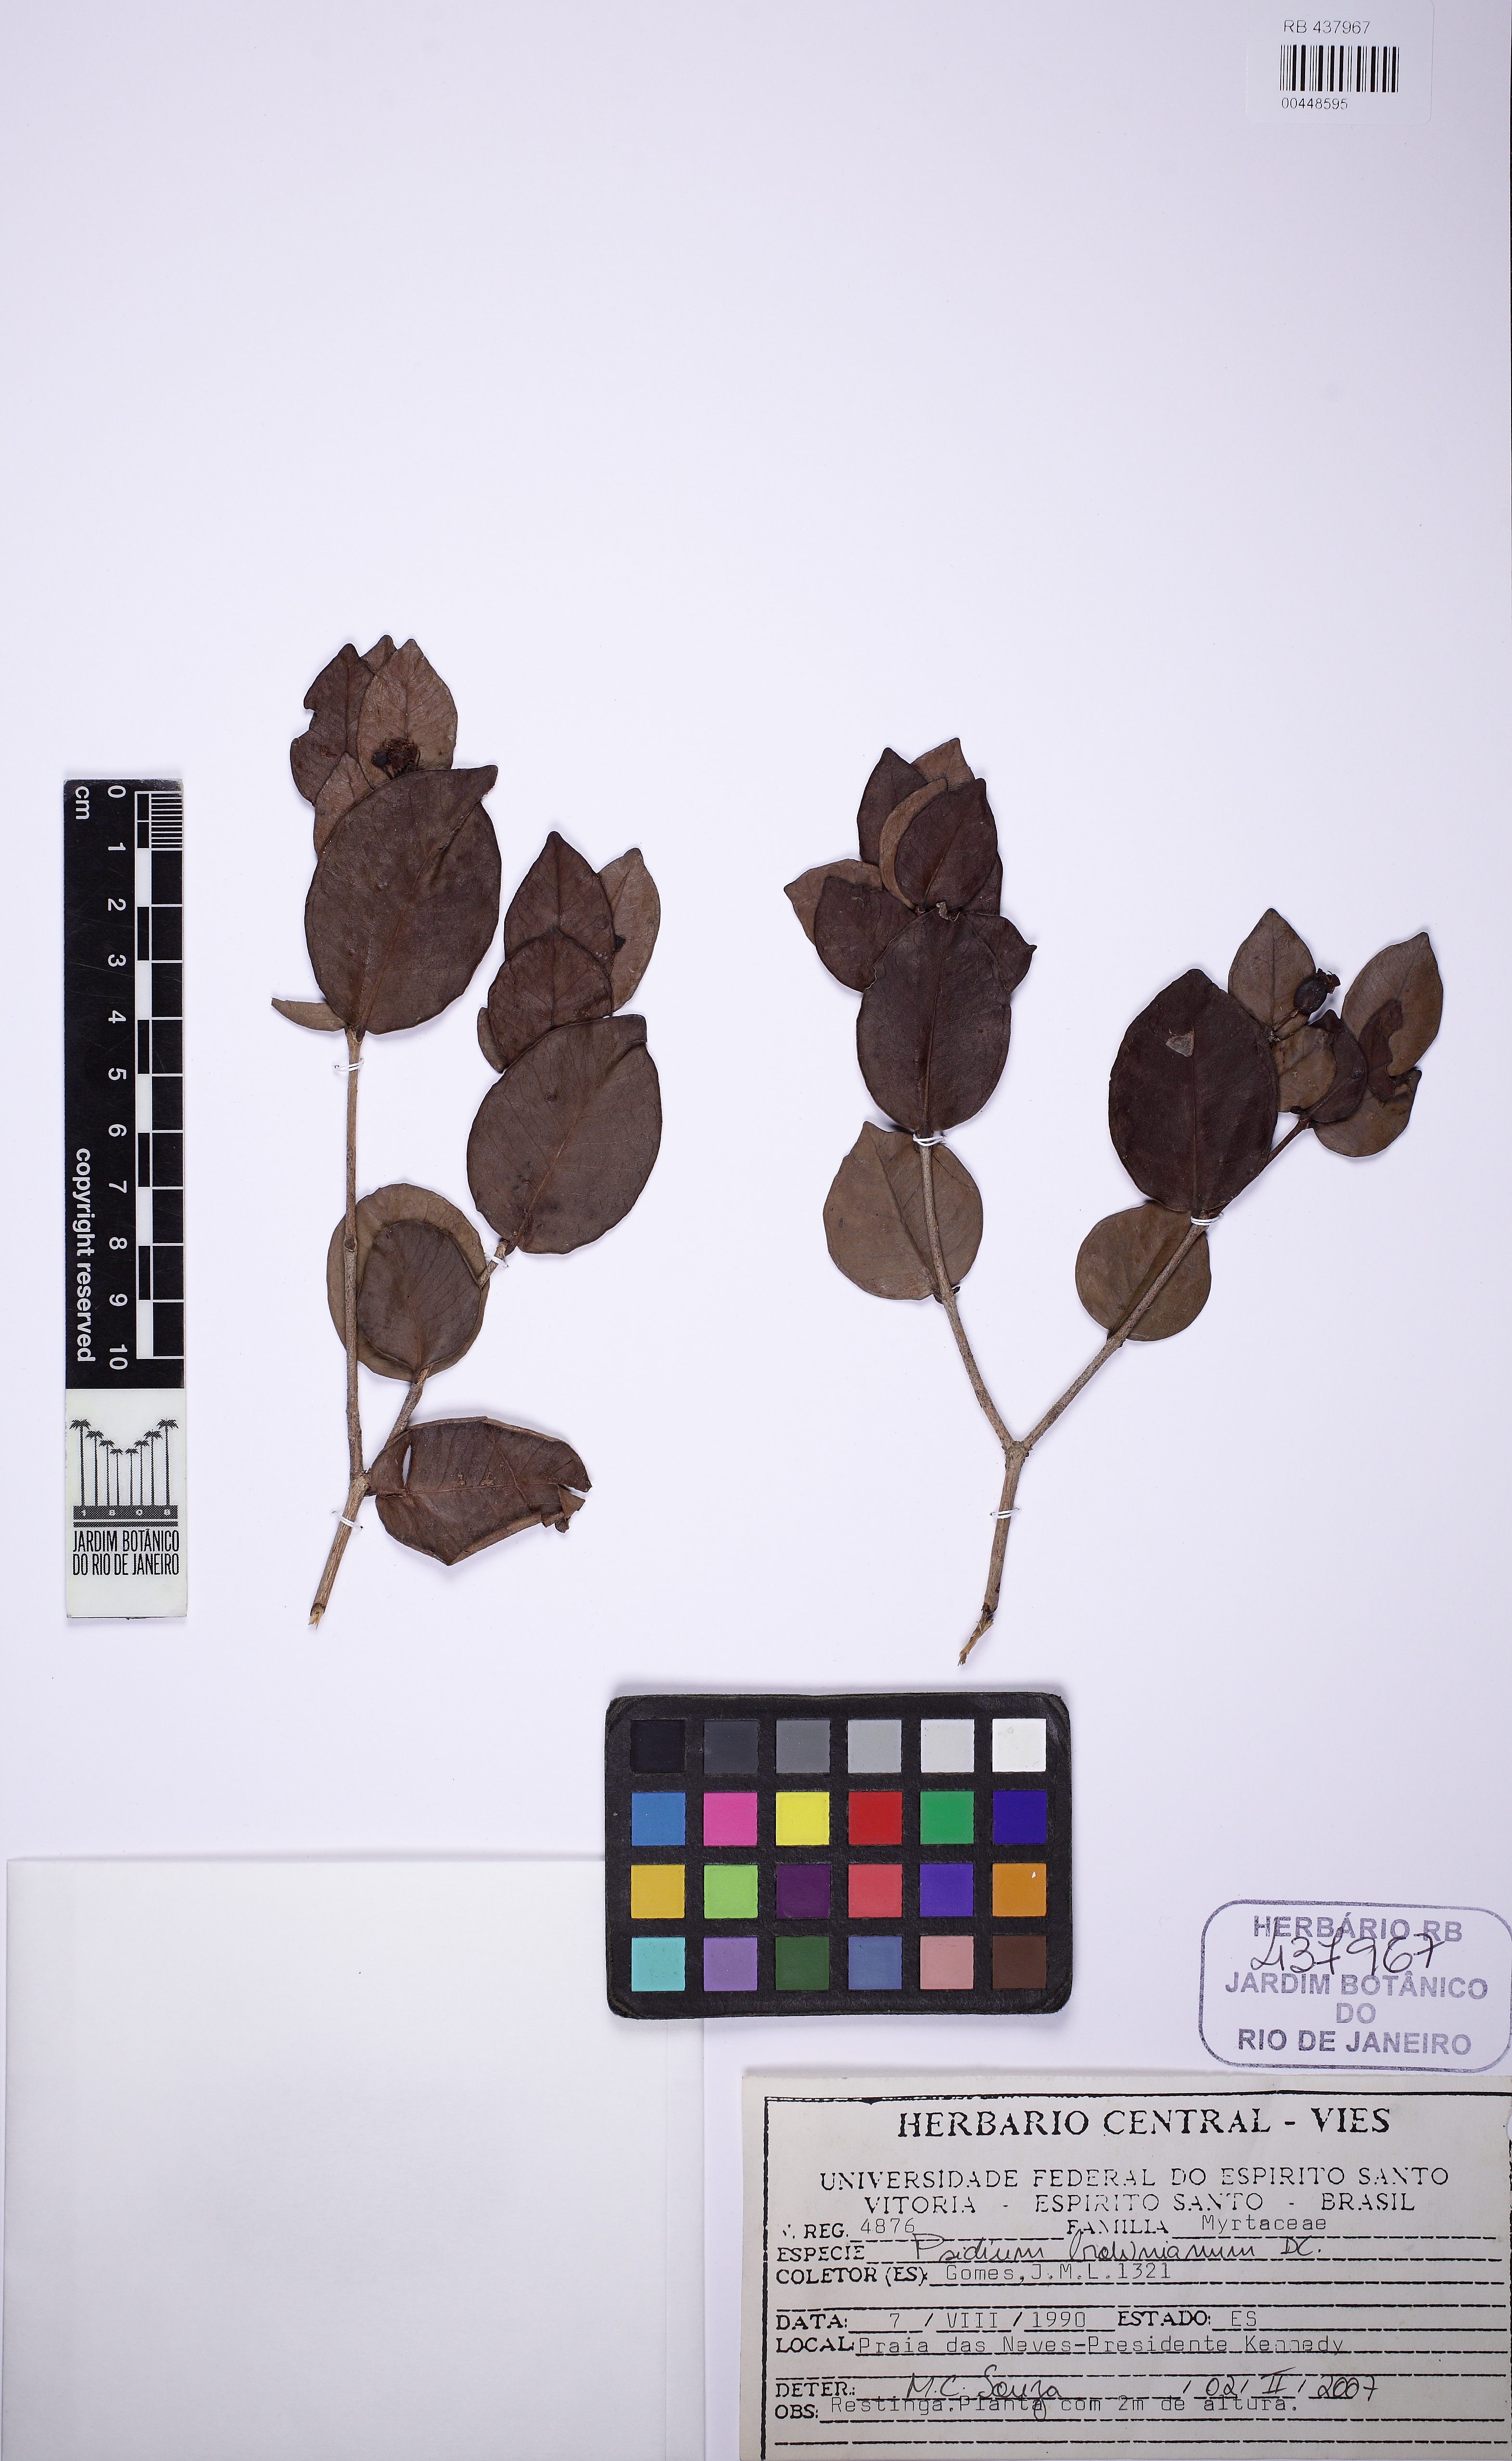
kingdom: Plantae
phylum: Tracheophyta
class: Magnoliopsida
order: Myrtales
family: Myrtaceae
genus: Psidium
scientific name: Psidium brownianum
